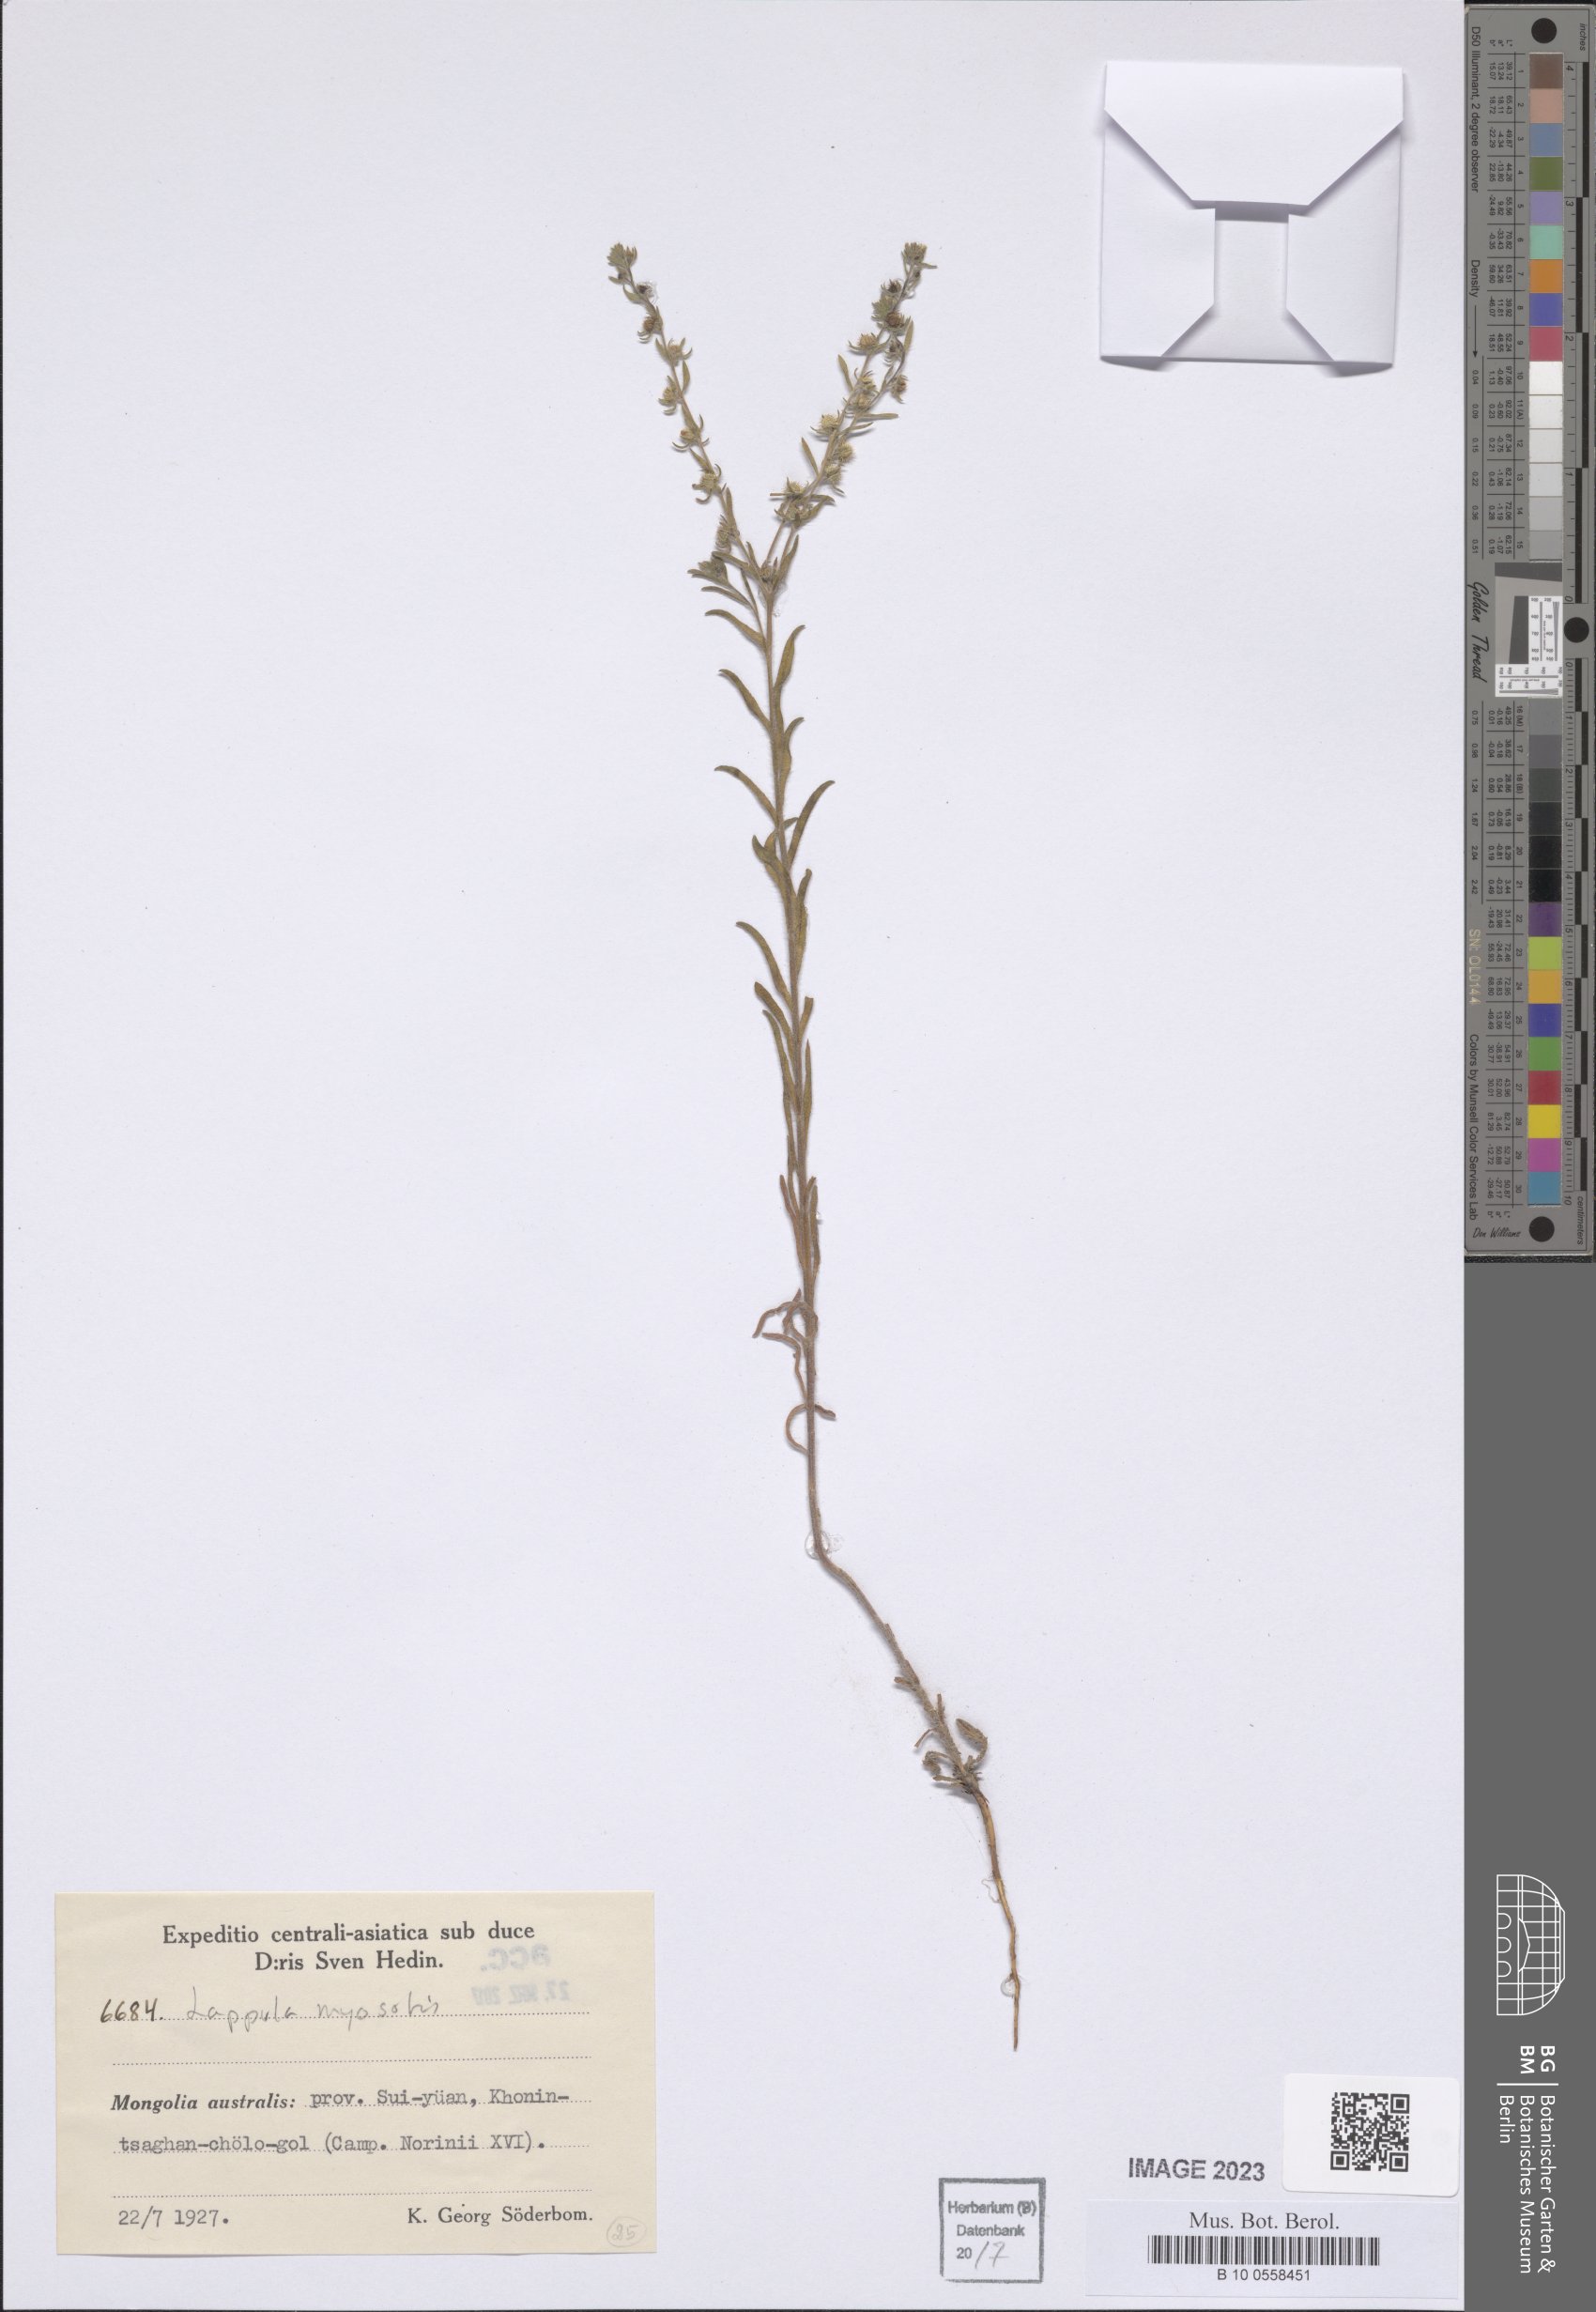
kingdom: Plantae
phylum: Tracheophyta
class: Magnoliopsida
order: Boraginales
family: Boraginaceae
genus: Lappula
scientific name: Lappula squarrosa
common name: European stickseed
